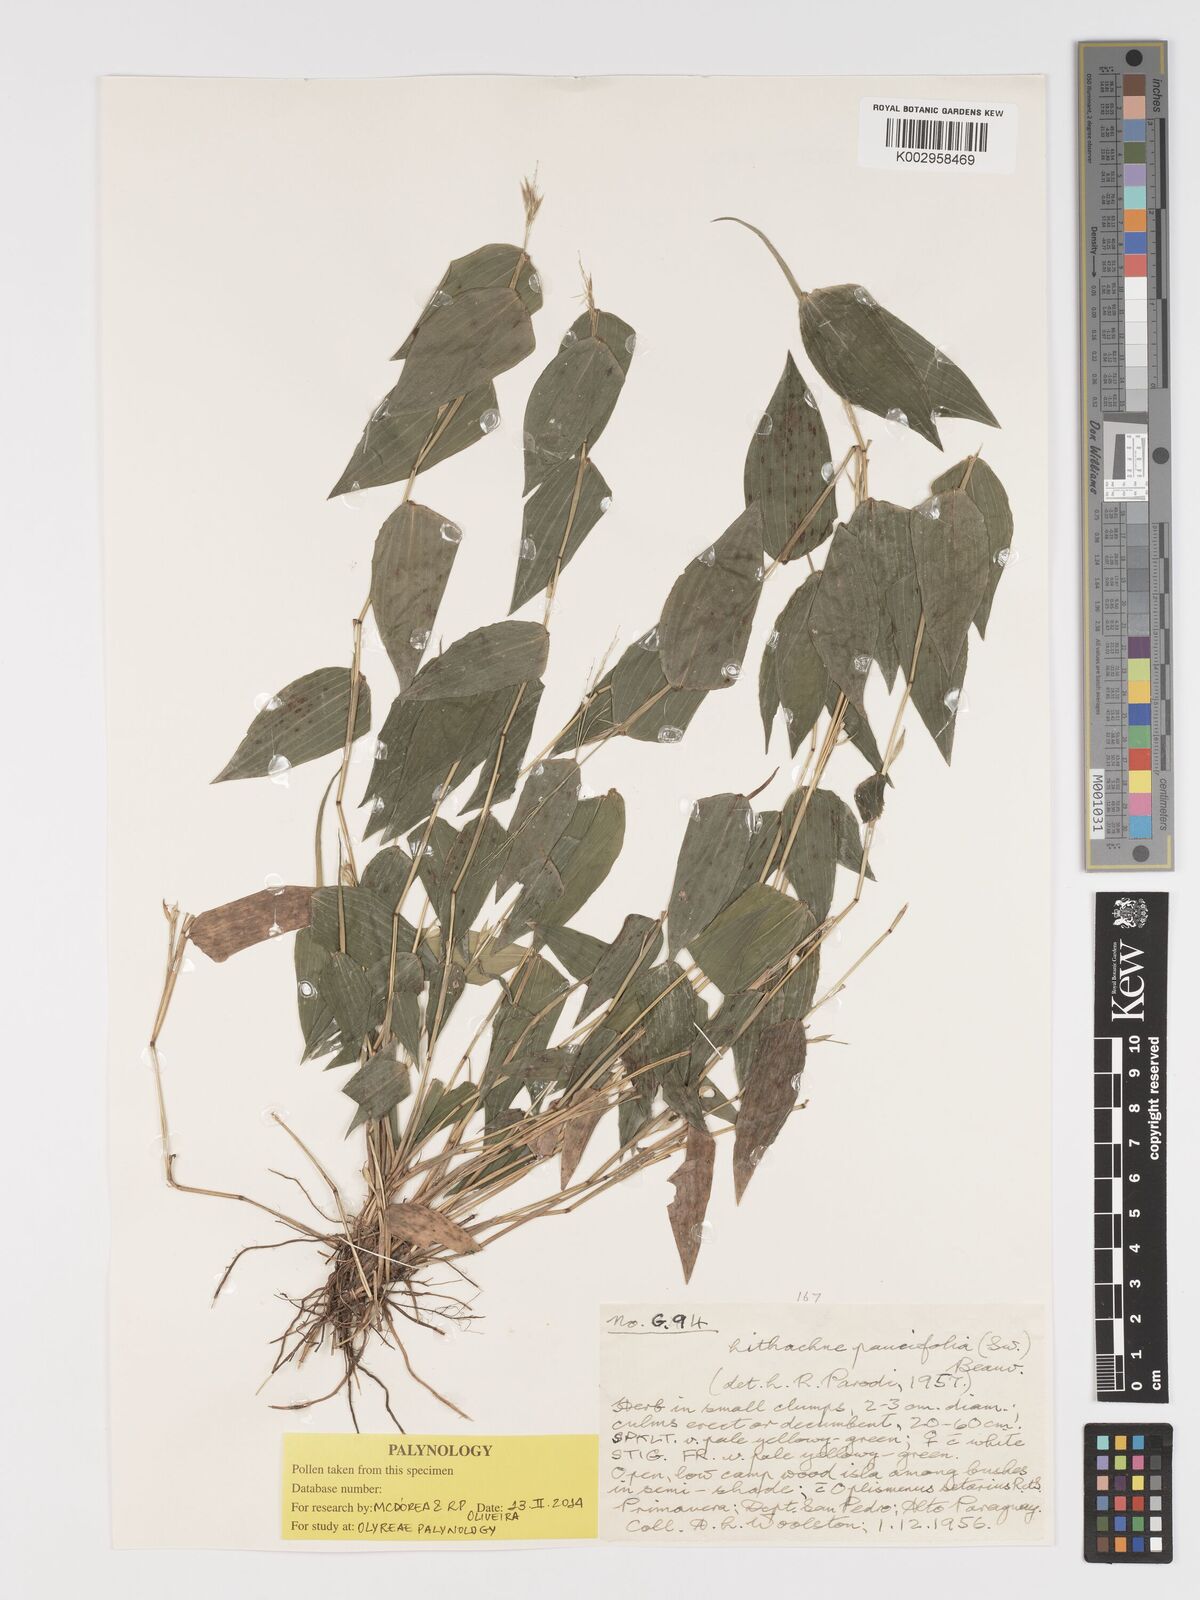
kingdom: Plantae
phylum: Tracheophyta
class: Liliopsida
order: Poales
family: Poaceae
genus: Lithachne
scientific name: Lithachne pauciflora
